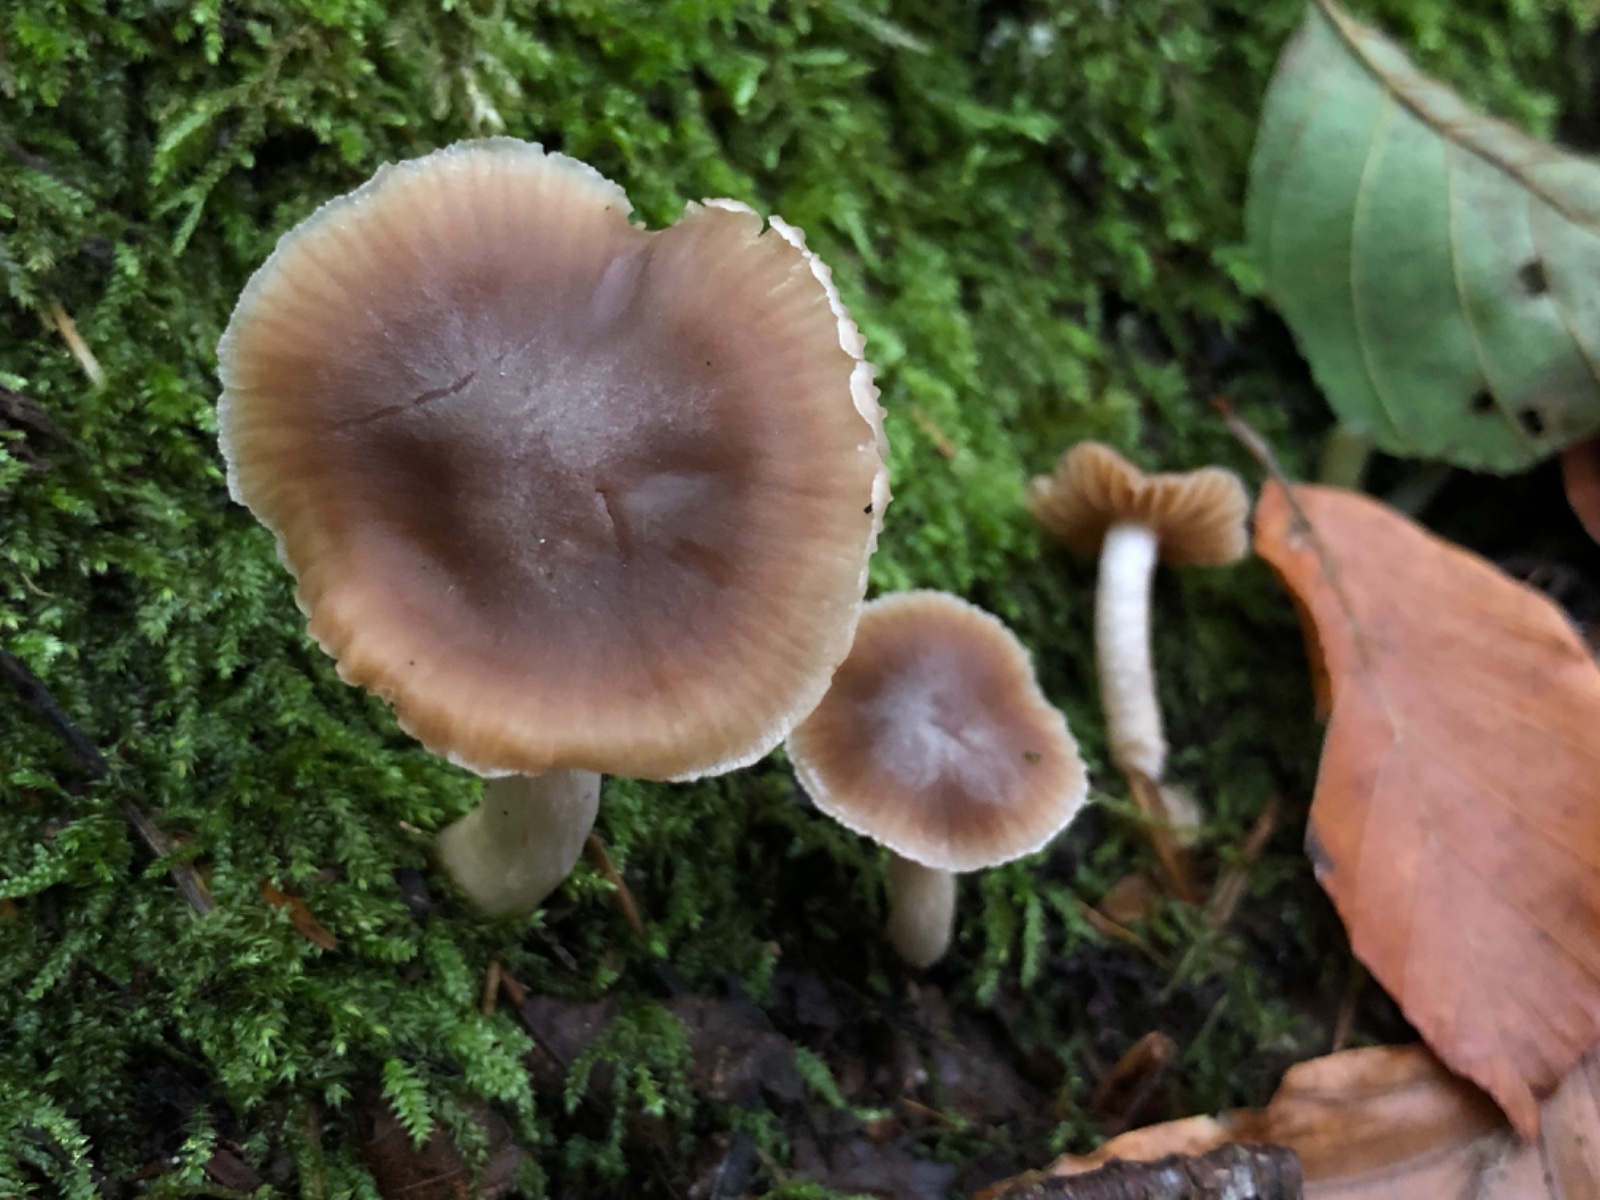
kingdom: Fungi
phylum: Basidiomycota
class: Agaricomycetes
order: Agaricales
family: Cortinariaceae
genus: Cortinarius
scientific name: Cortinarius fragrantior
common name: daddelbrun slørhat
